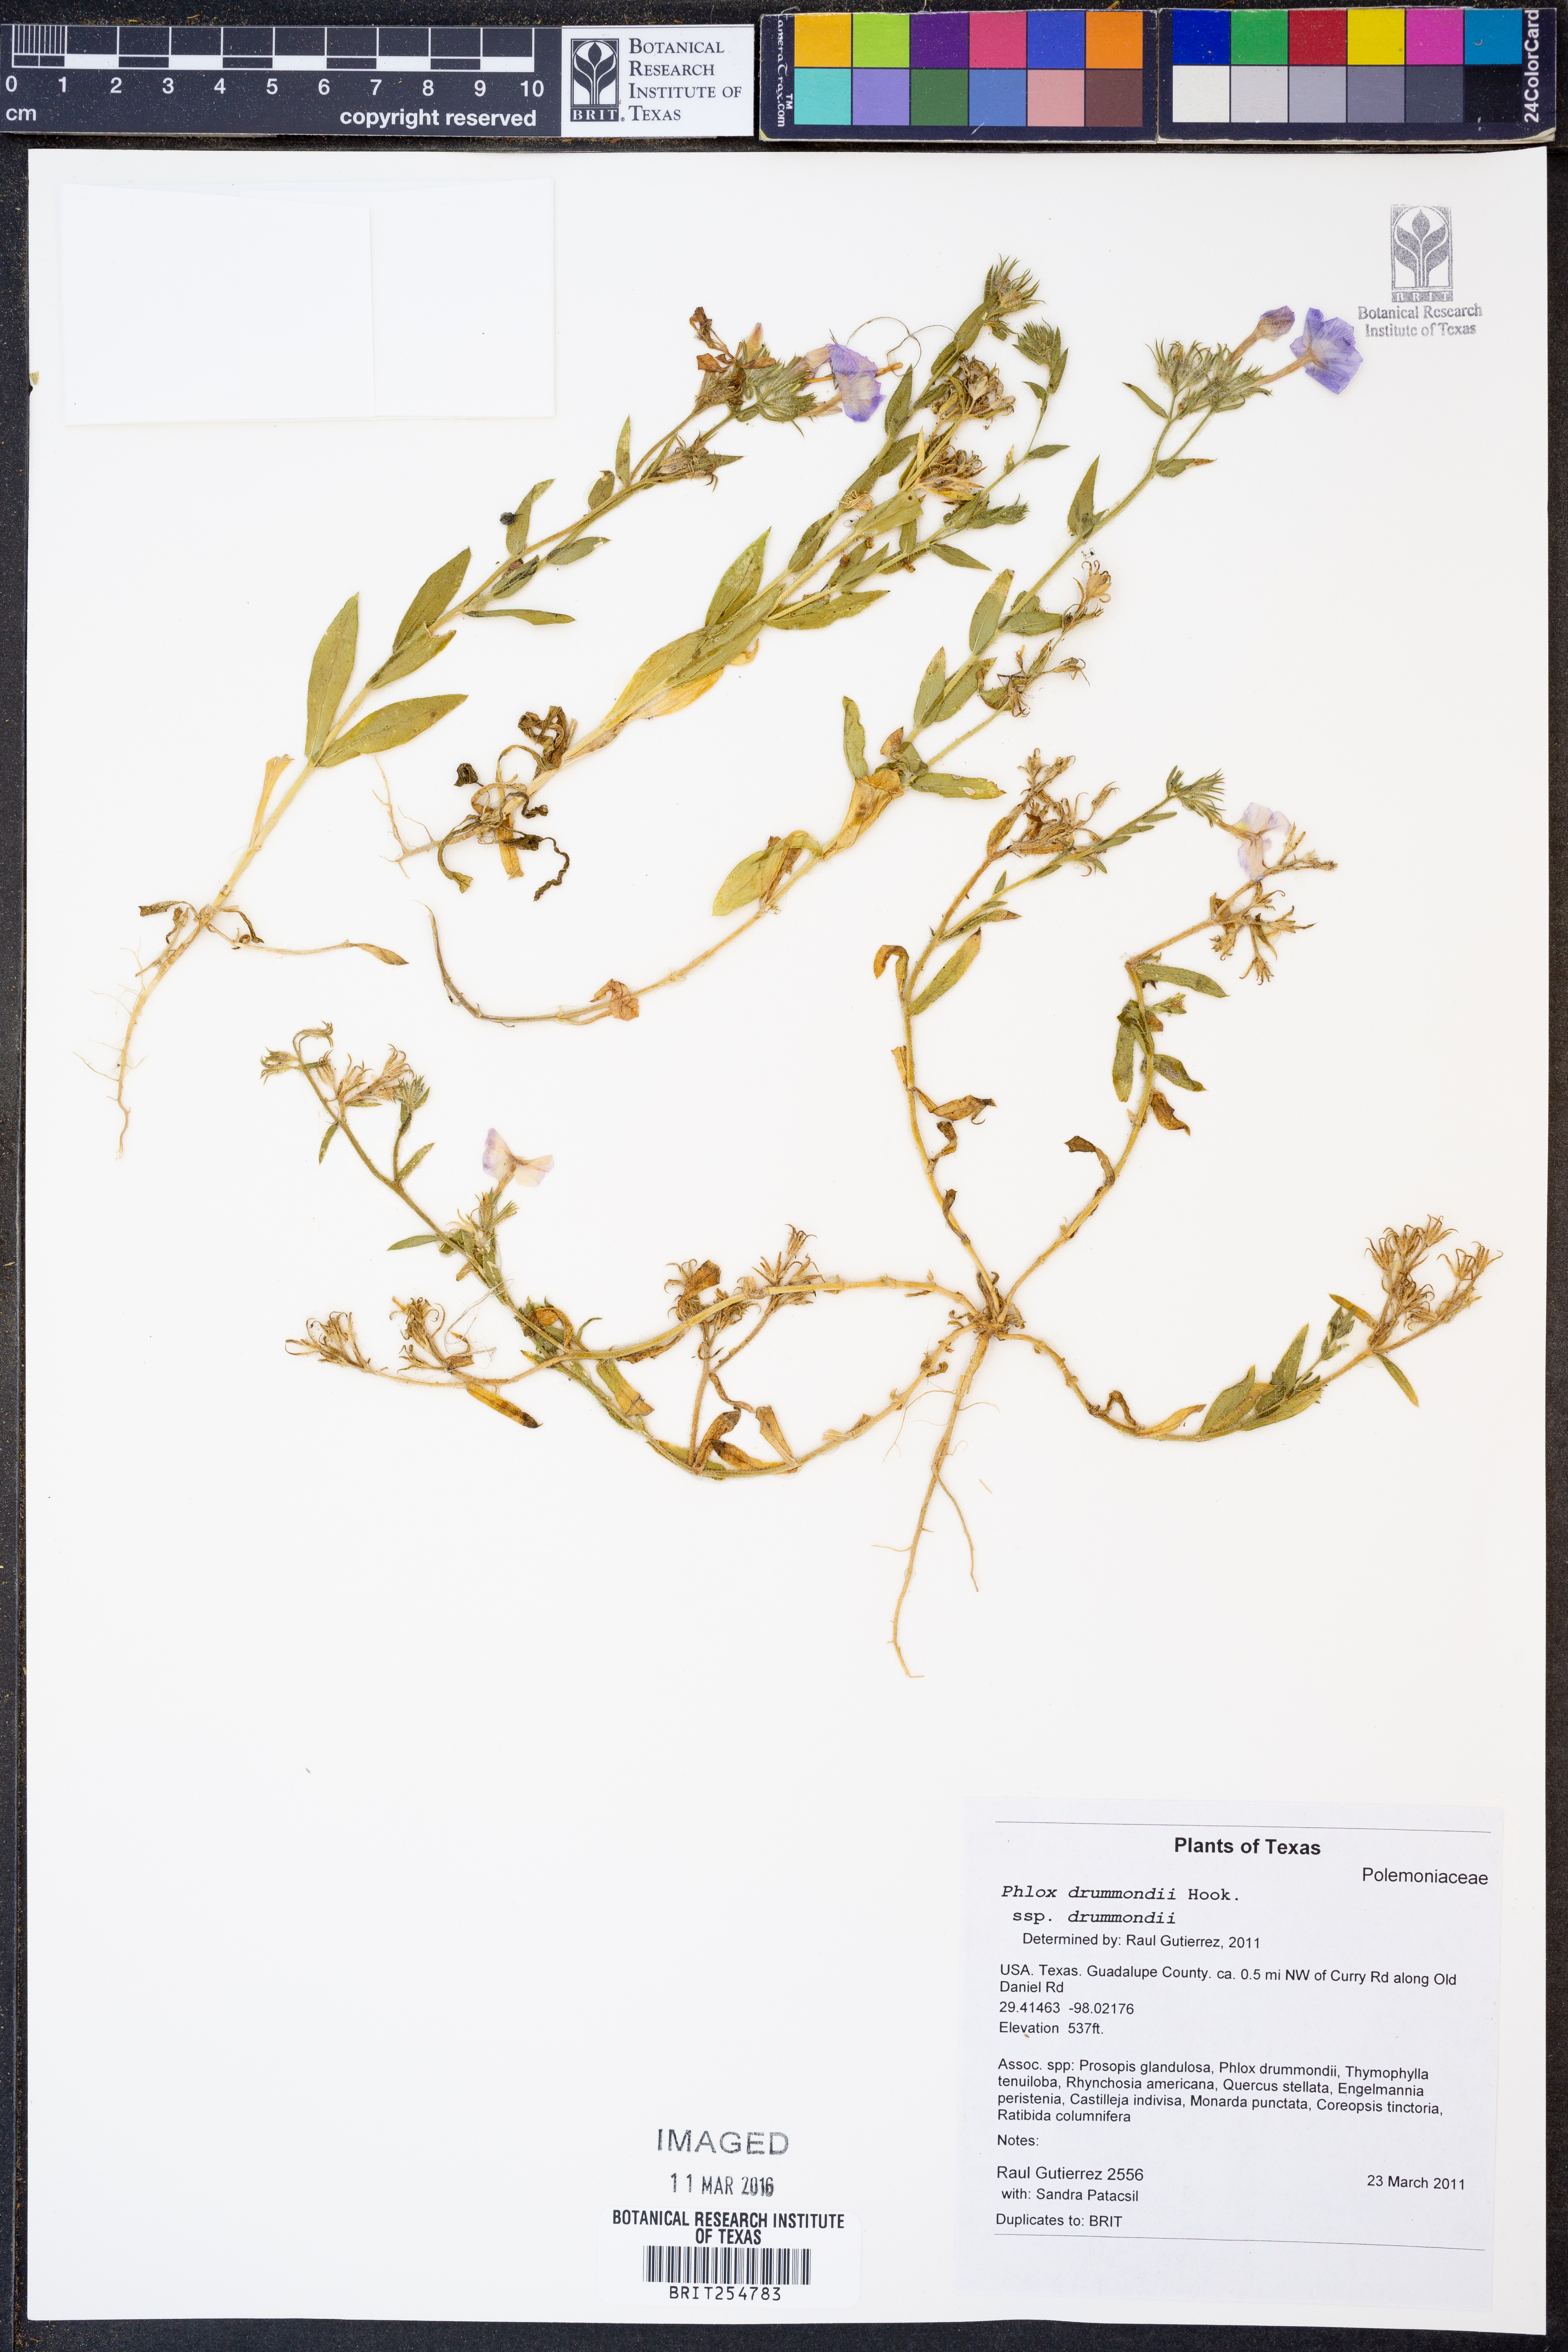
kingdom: Plantae
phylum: Tracheophyta
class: Magnoliopsida
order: Ericales
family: Polemoniaceae
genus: Phlox
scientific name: Phlox drummondii
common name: Drummond's phlox
